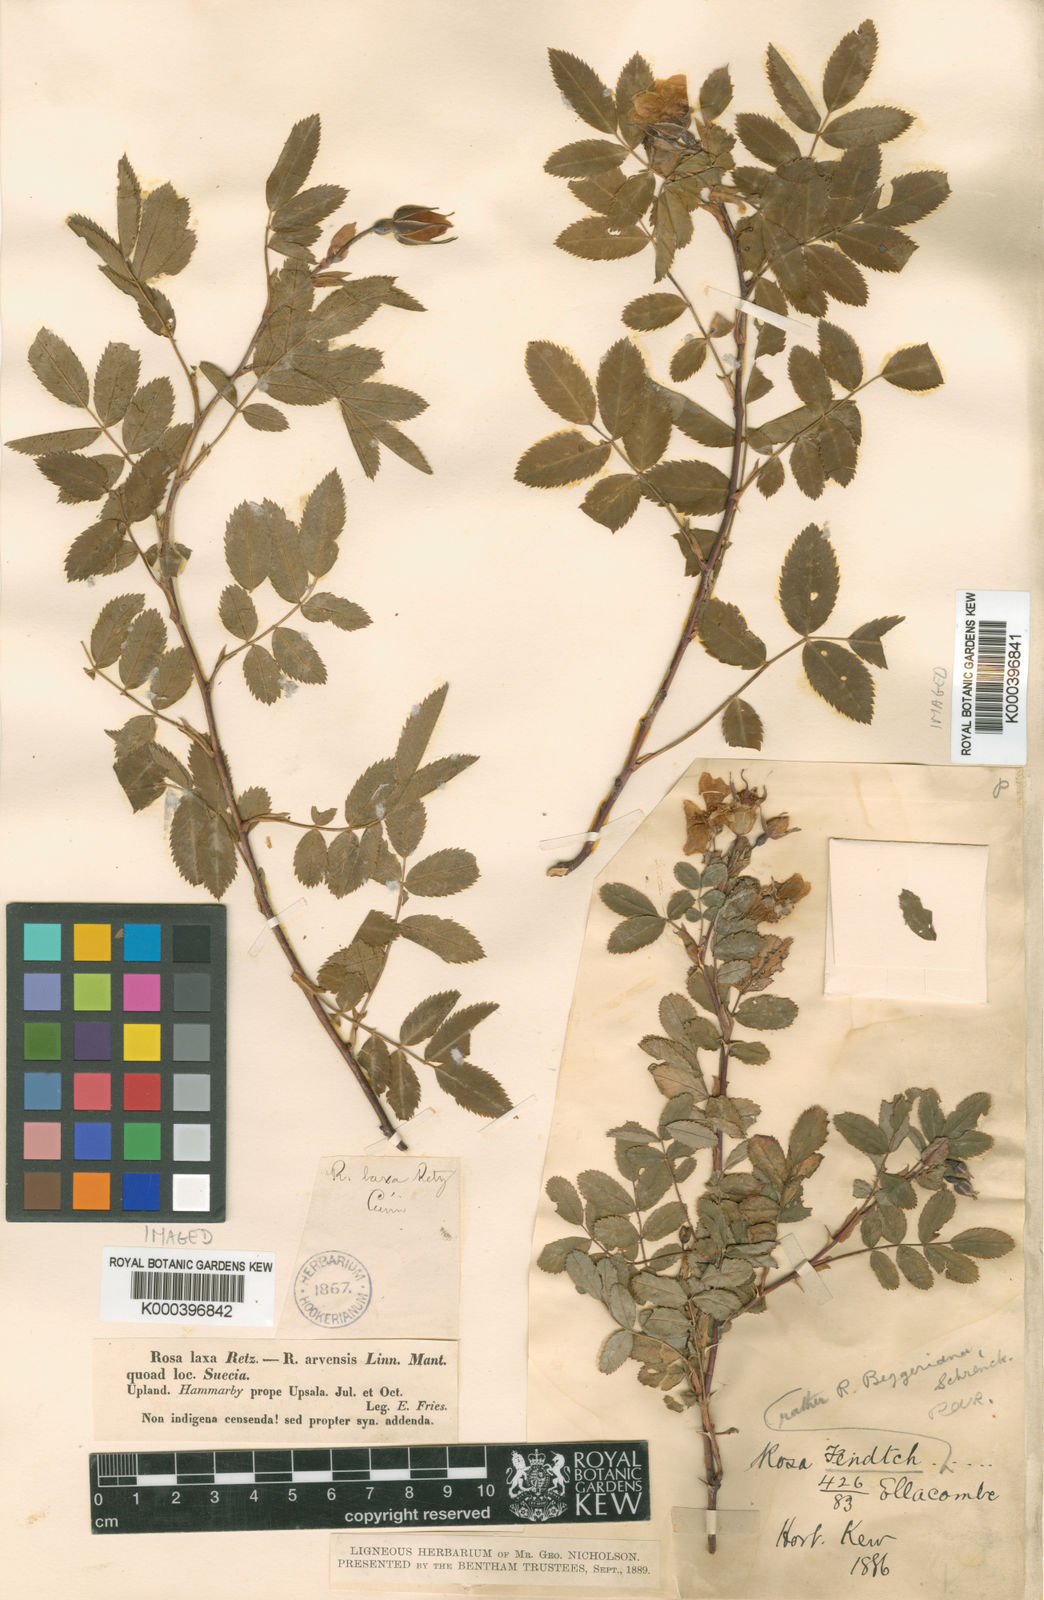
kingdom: Plantae
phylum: Tracheophyta
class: Magnoliopsida
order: Rosales
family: Rosaceae
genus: Rosa
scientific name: Rosa beggeriana
